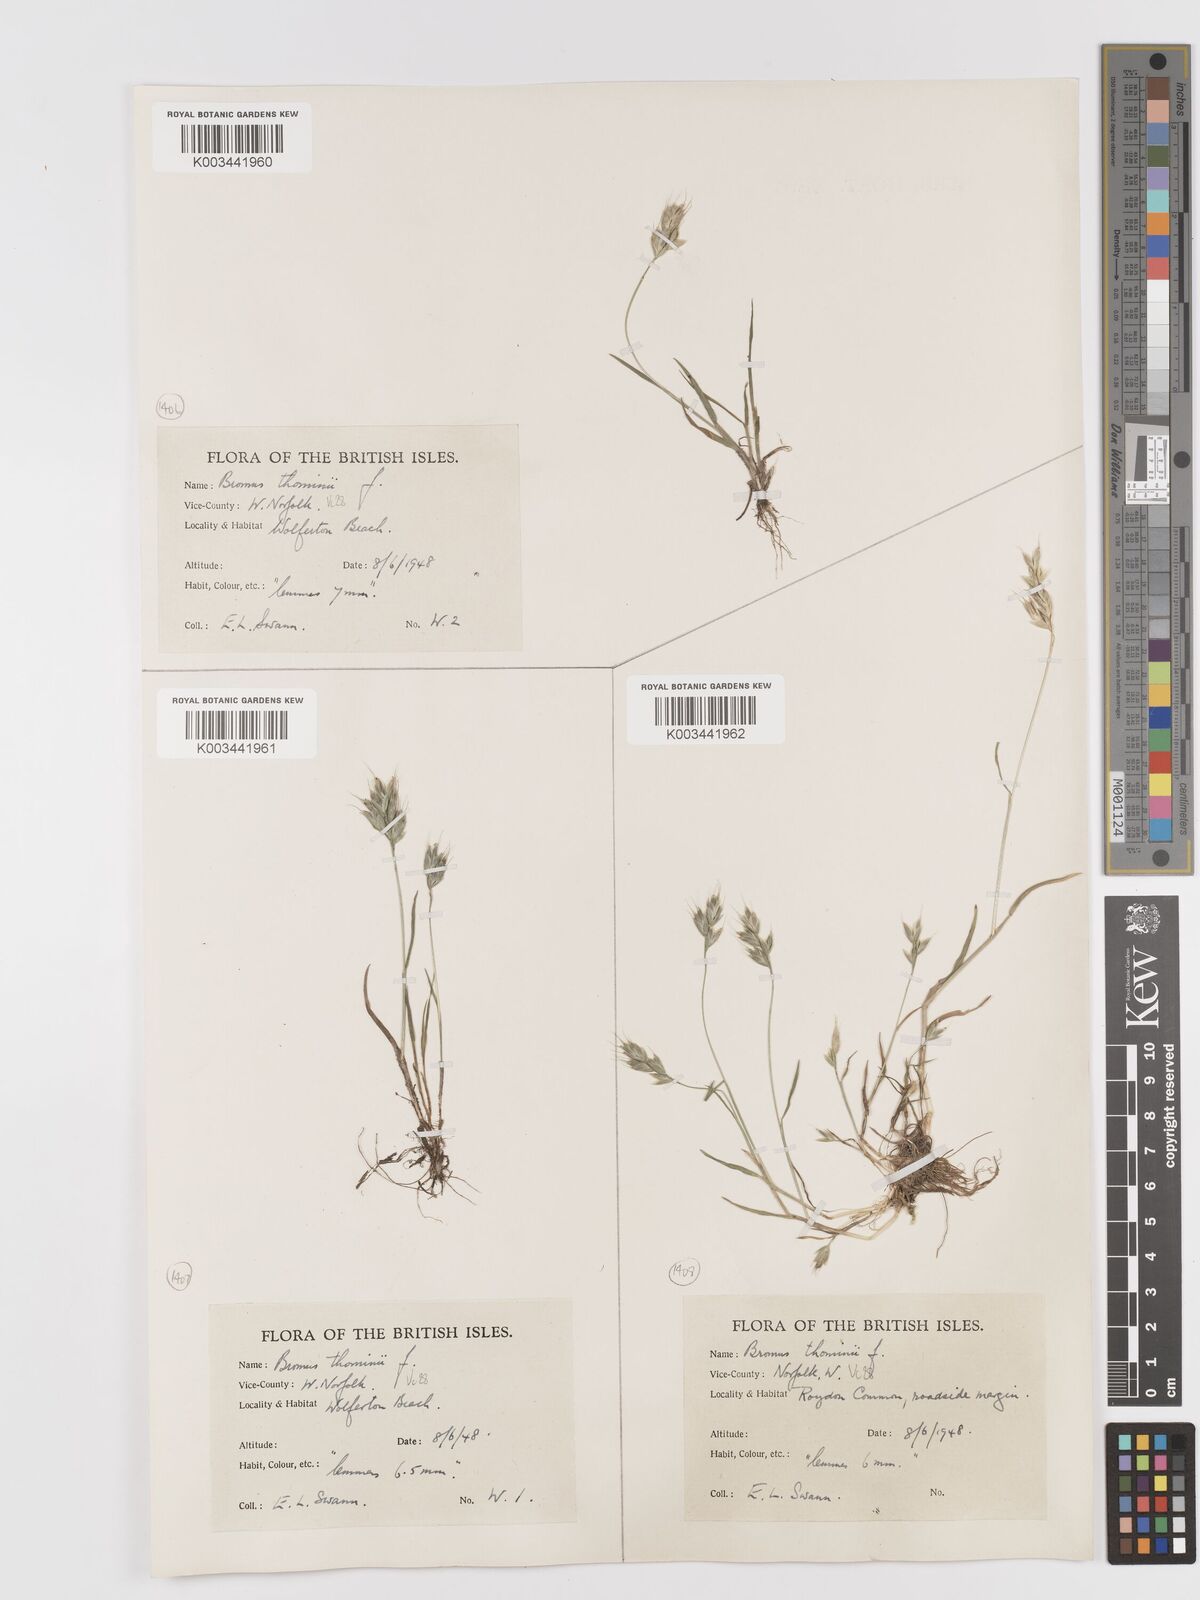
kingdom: Plantae
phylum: Tracheophyta
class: Liliopsida
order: Poales
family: Poaceae
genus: Bromus
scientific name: Bromus hordeaceus
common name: Soft brome
